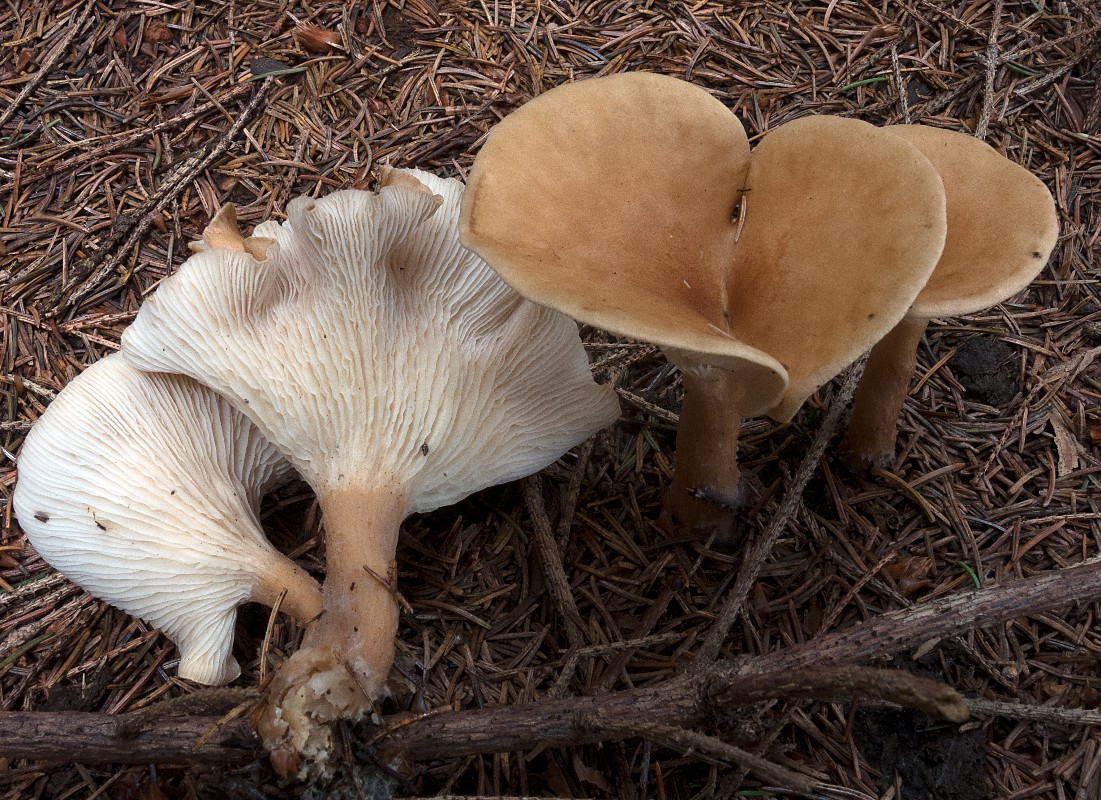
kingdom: Fungi
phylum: Basidiomycota
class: Agaricomycetes
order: Agaricales
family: Tricholomataceae
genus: Infundibulicybe
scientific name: Infundibulicybe squamulosa
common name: småskællet tragthat
